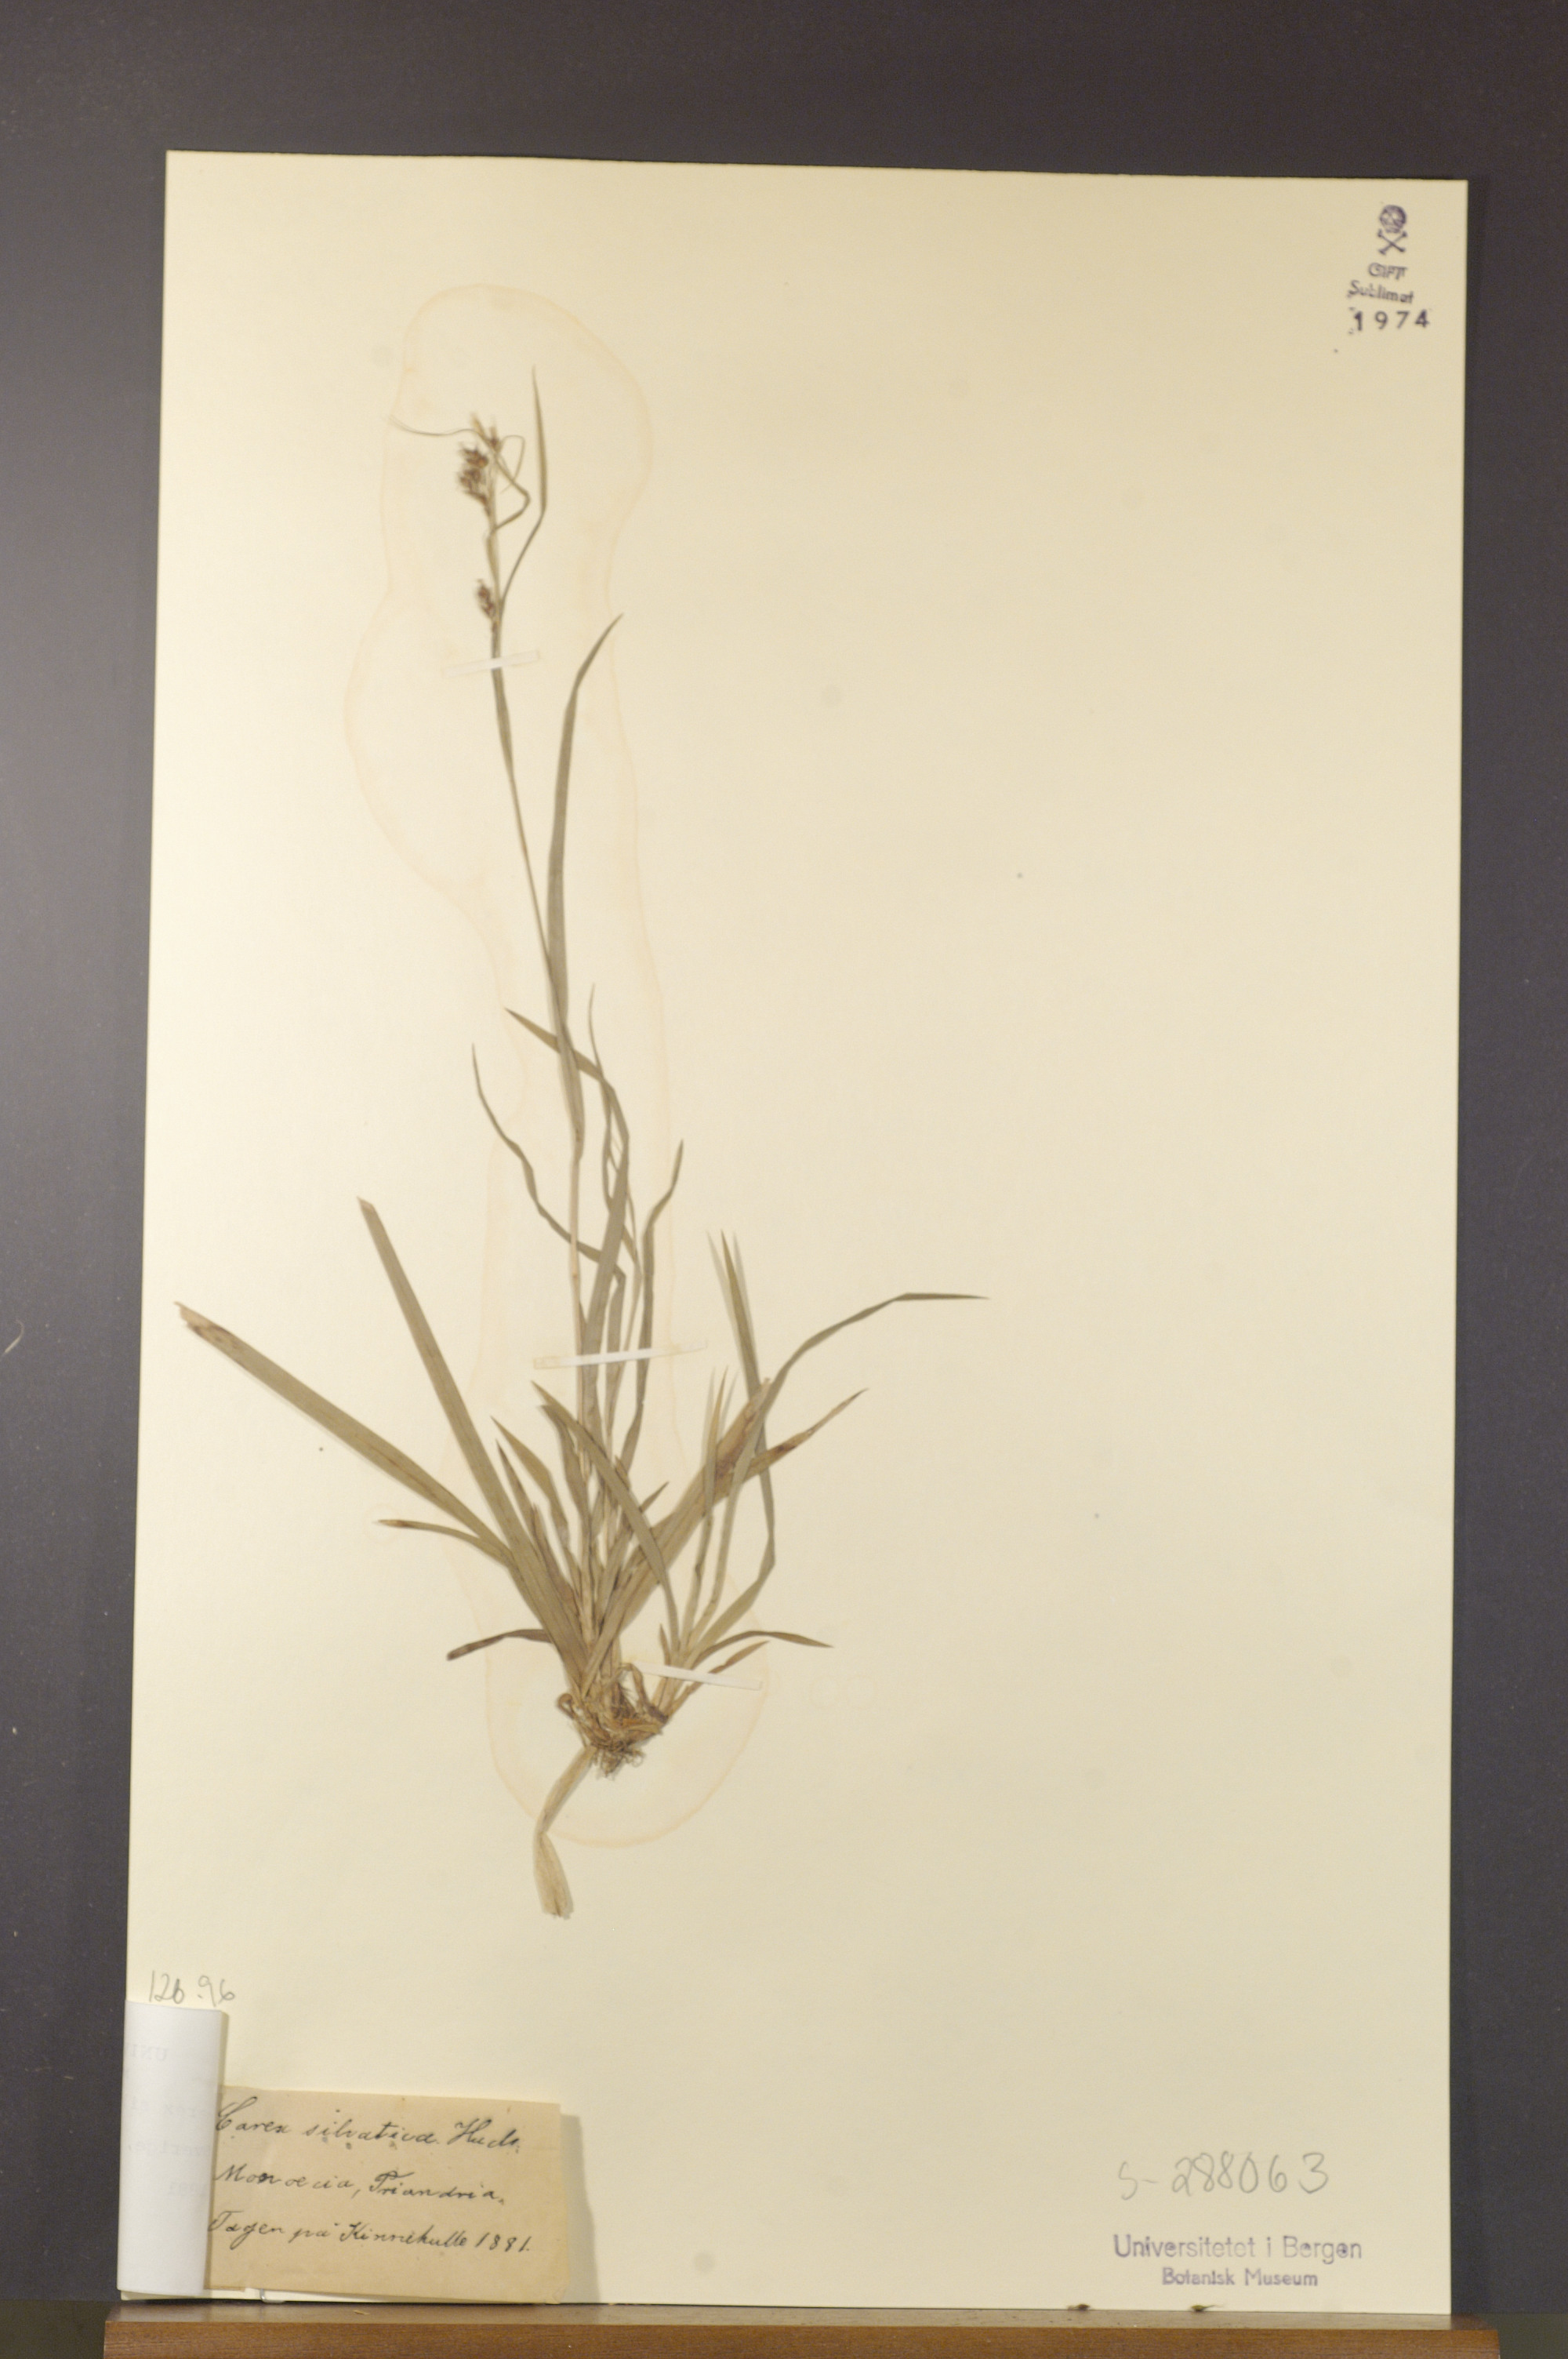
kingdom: Plantae
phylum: Tracheophyta
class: Liliopsida
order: Poales
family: Cyperaceae
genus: Carex
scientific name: Carex sylvatica
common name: Wood-sedge
